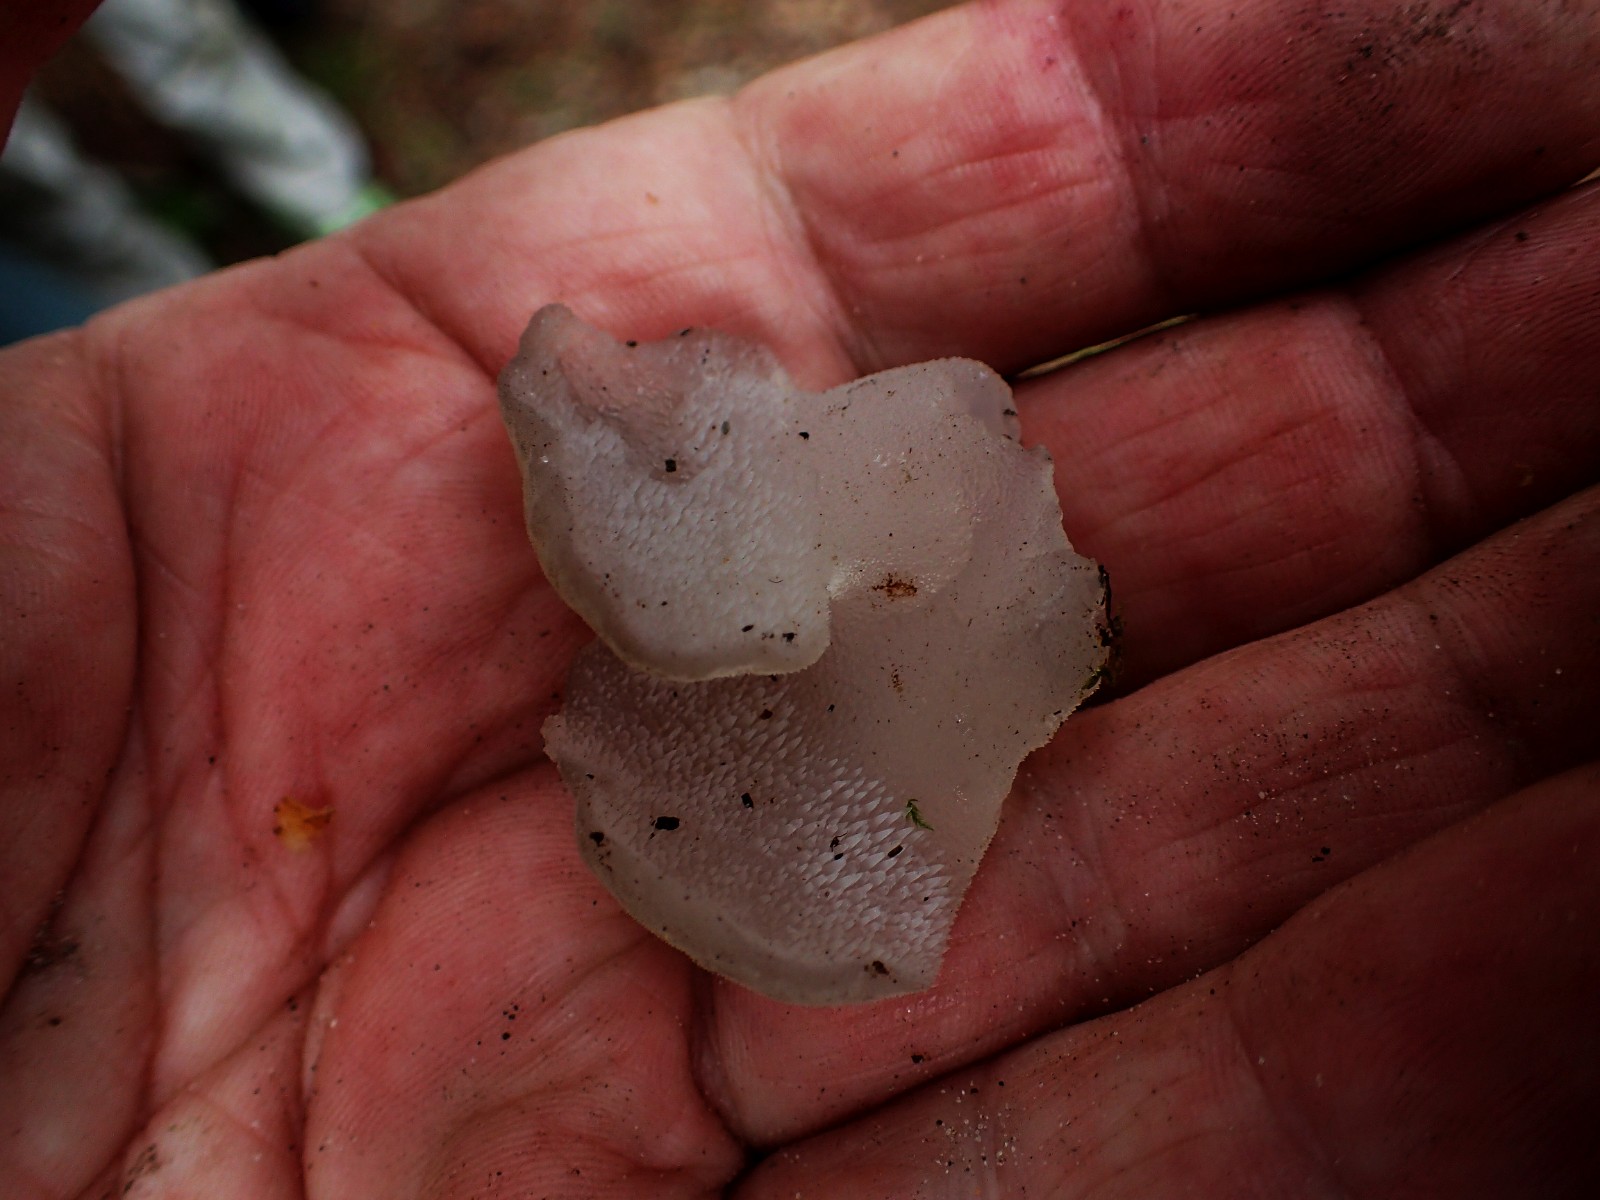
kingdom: Fungi
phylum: Basidiomycota
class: Agaricomycetes
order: Auriculariales
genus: Pseudohydnum
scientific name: Pseudohydnum gelatinosum
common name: bævretand
